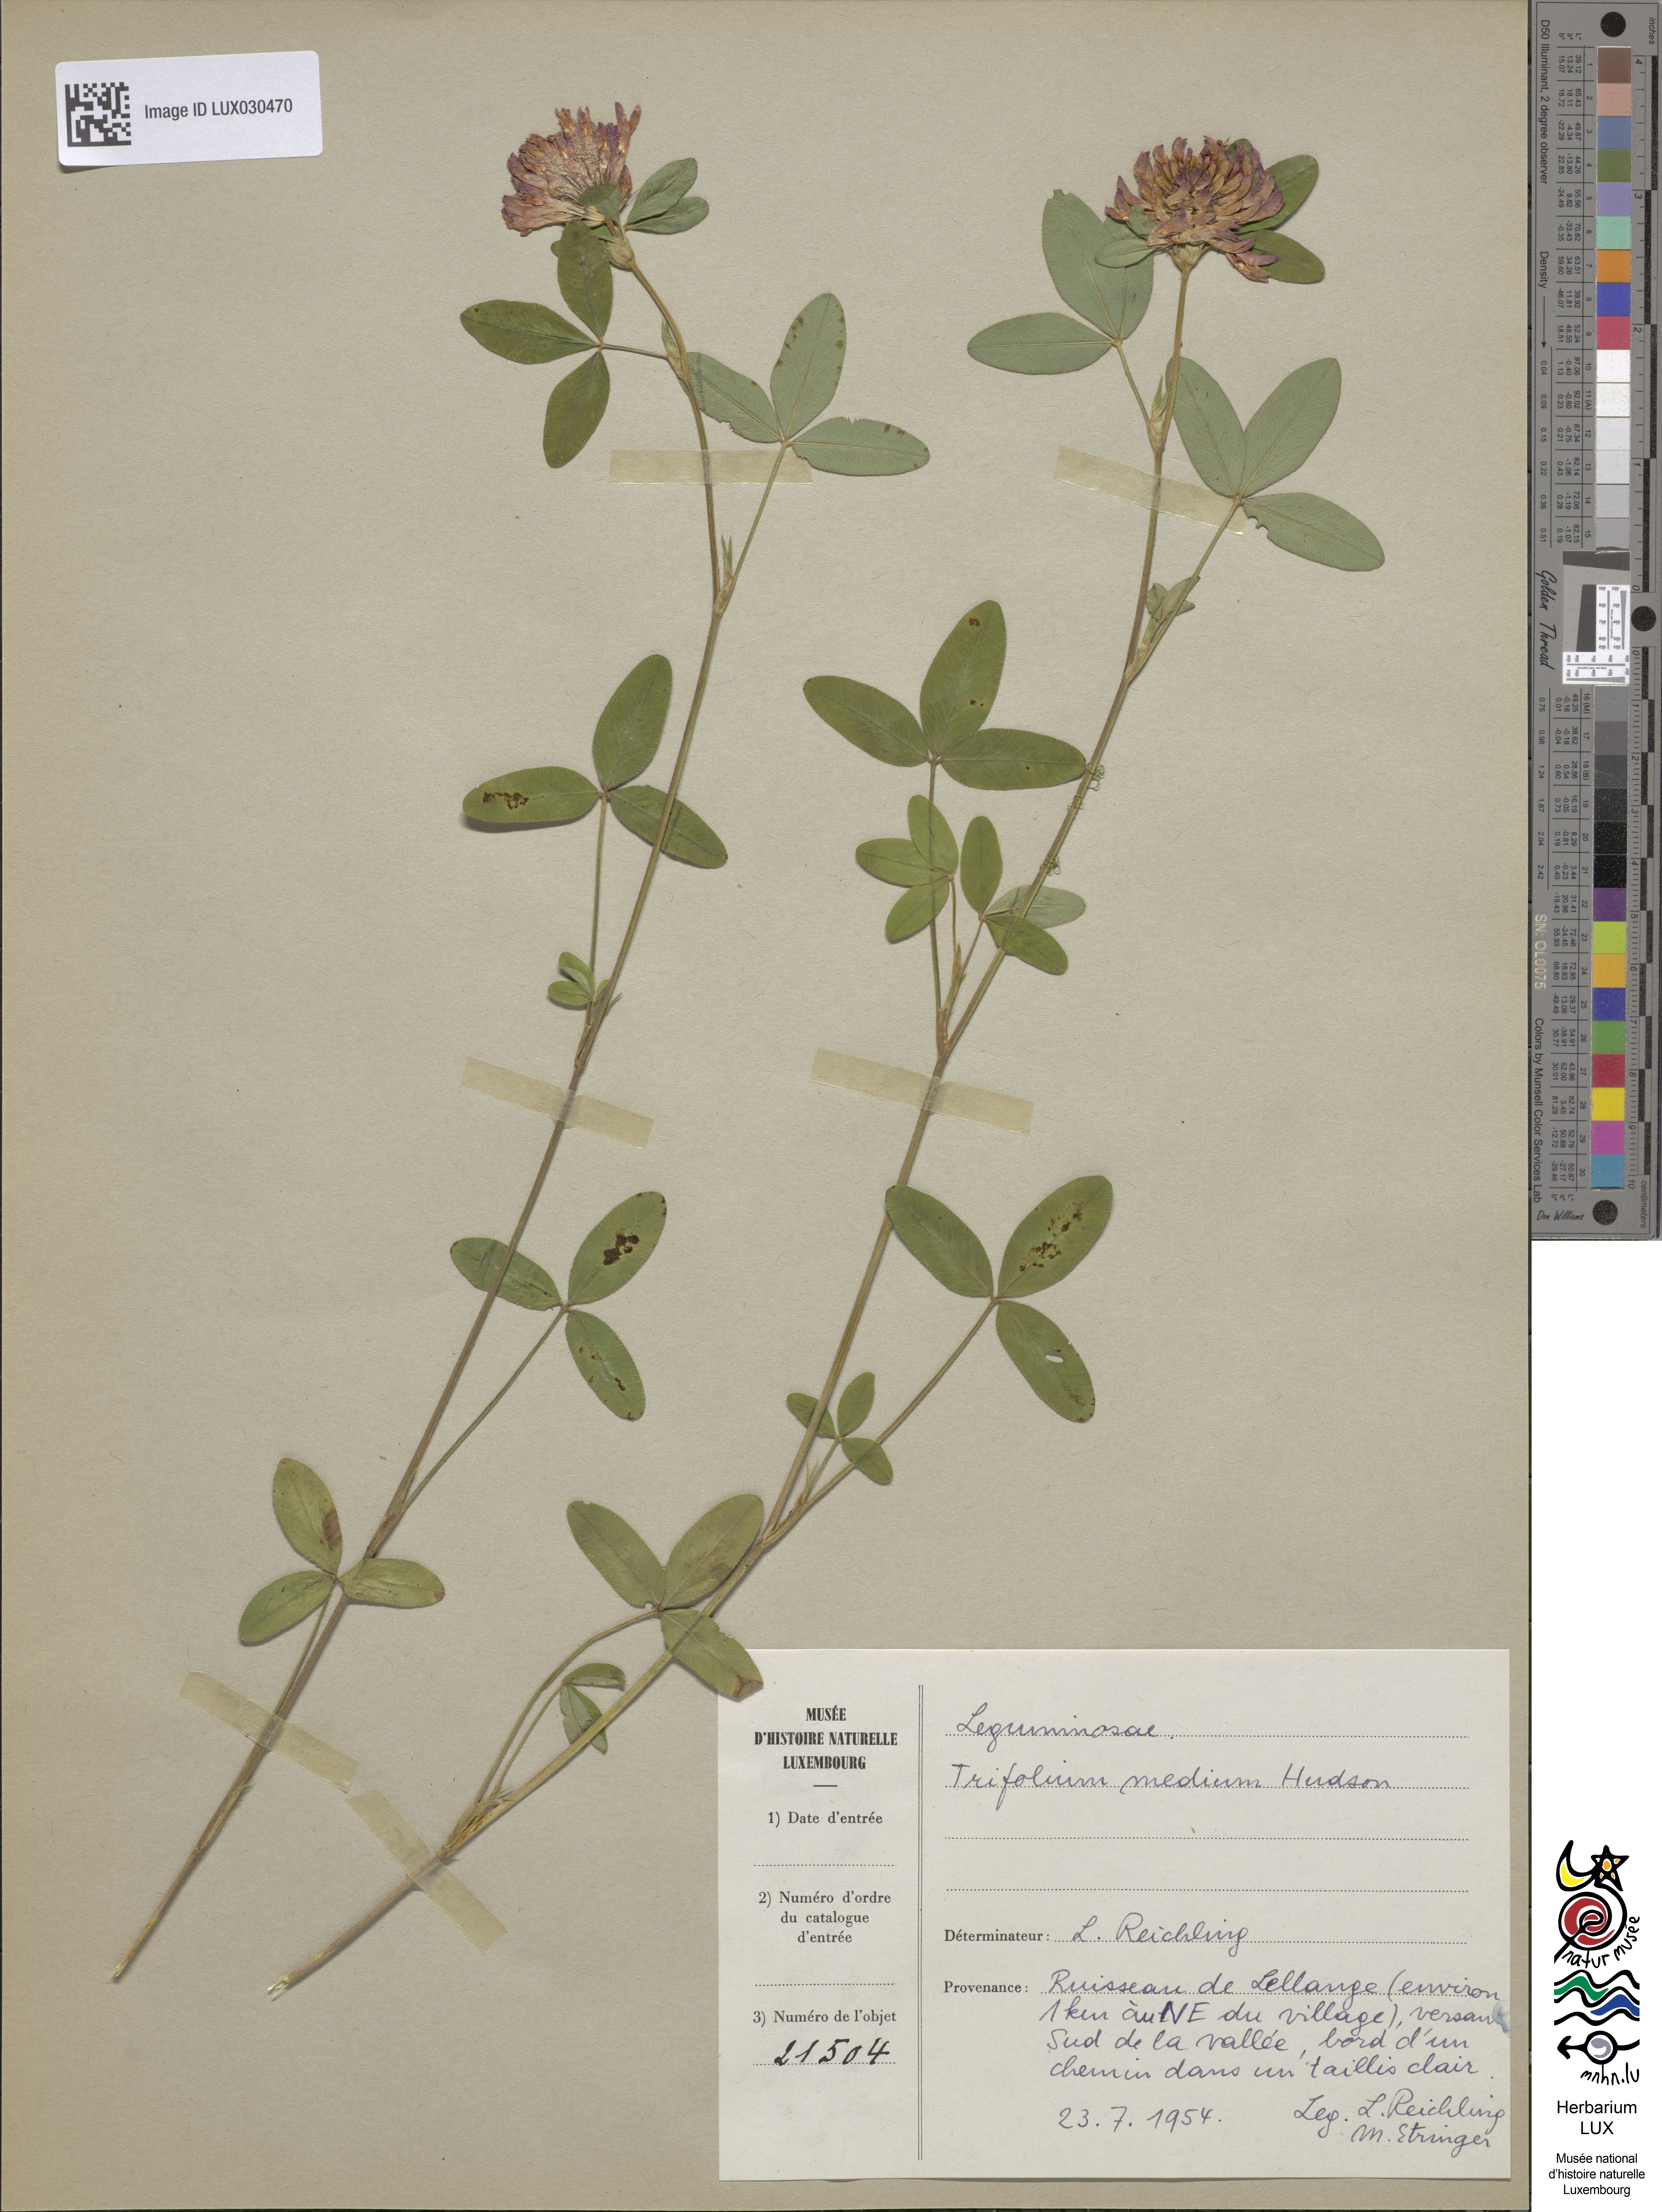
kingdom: Plantae
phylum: Tracheophyta
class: Magnoliopsida
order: Fabales
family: Fabaceae
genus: Trifolium
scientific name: Trifolium medium
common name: Zigzag clover
